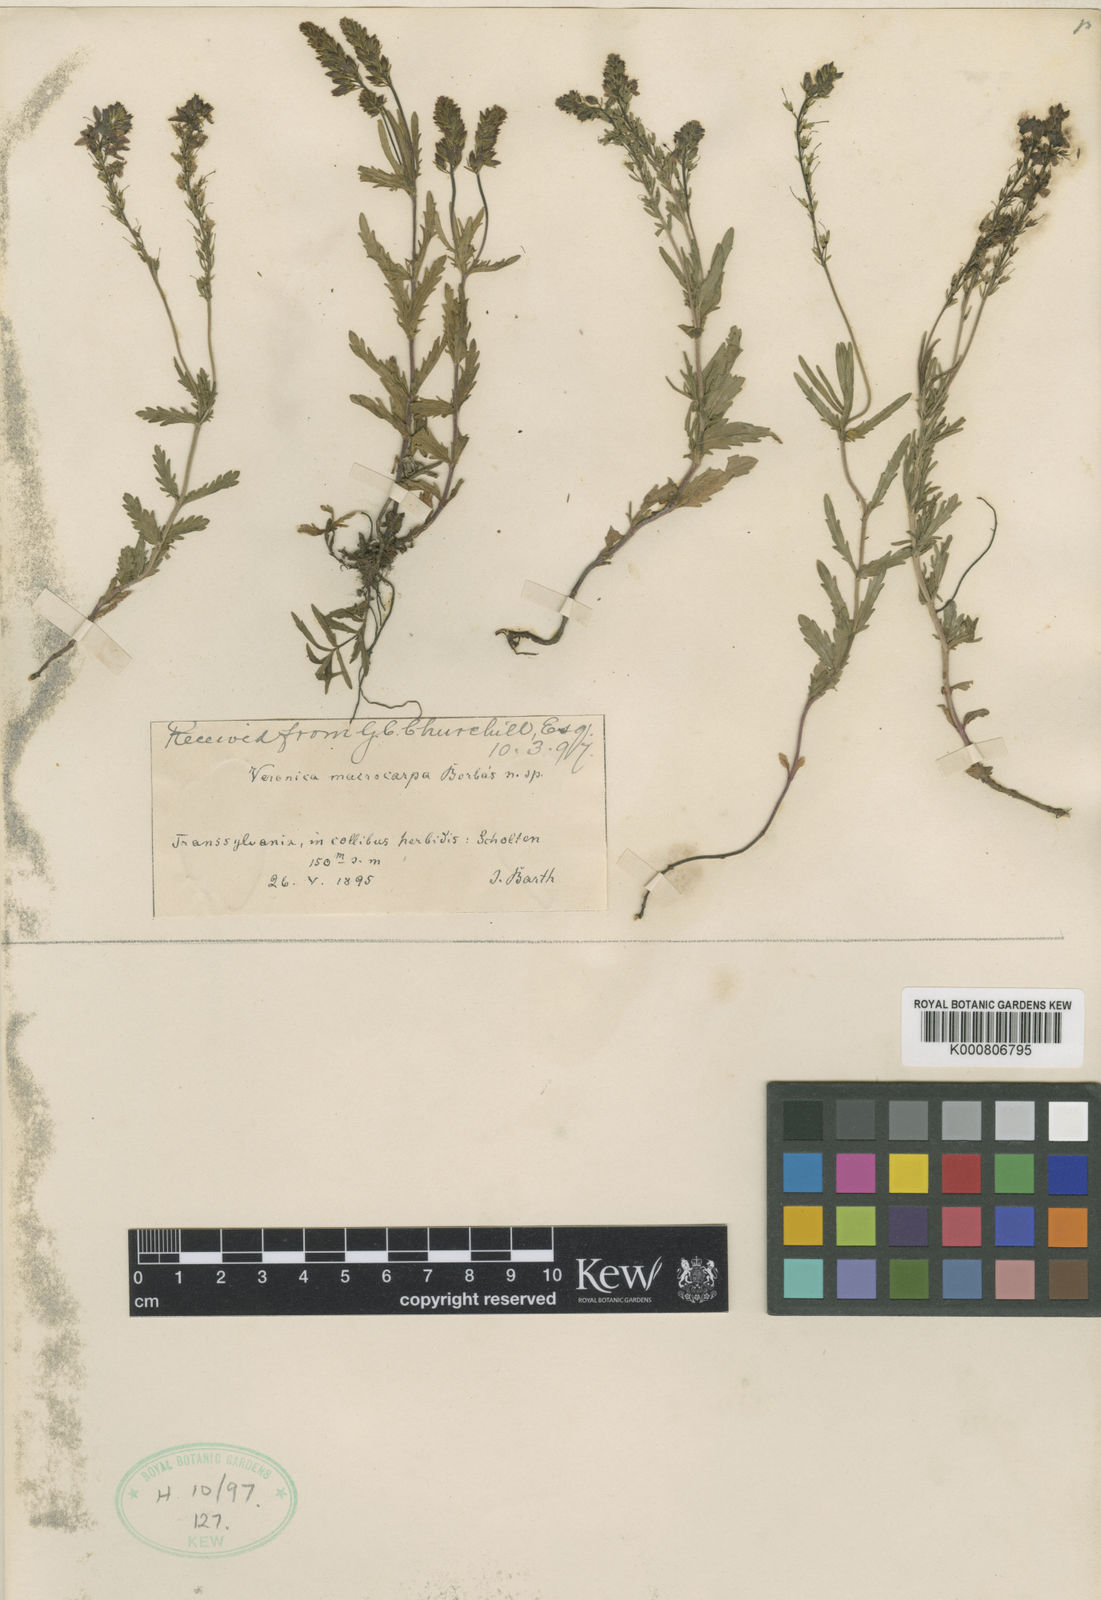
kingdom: Plantae
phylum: Tracheophyta
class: Magnoliopsida
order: Lamiales
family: Plantaginaceae
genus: Veronica
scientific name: Veronica austriaca
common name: Large speedwell
